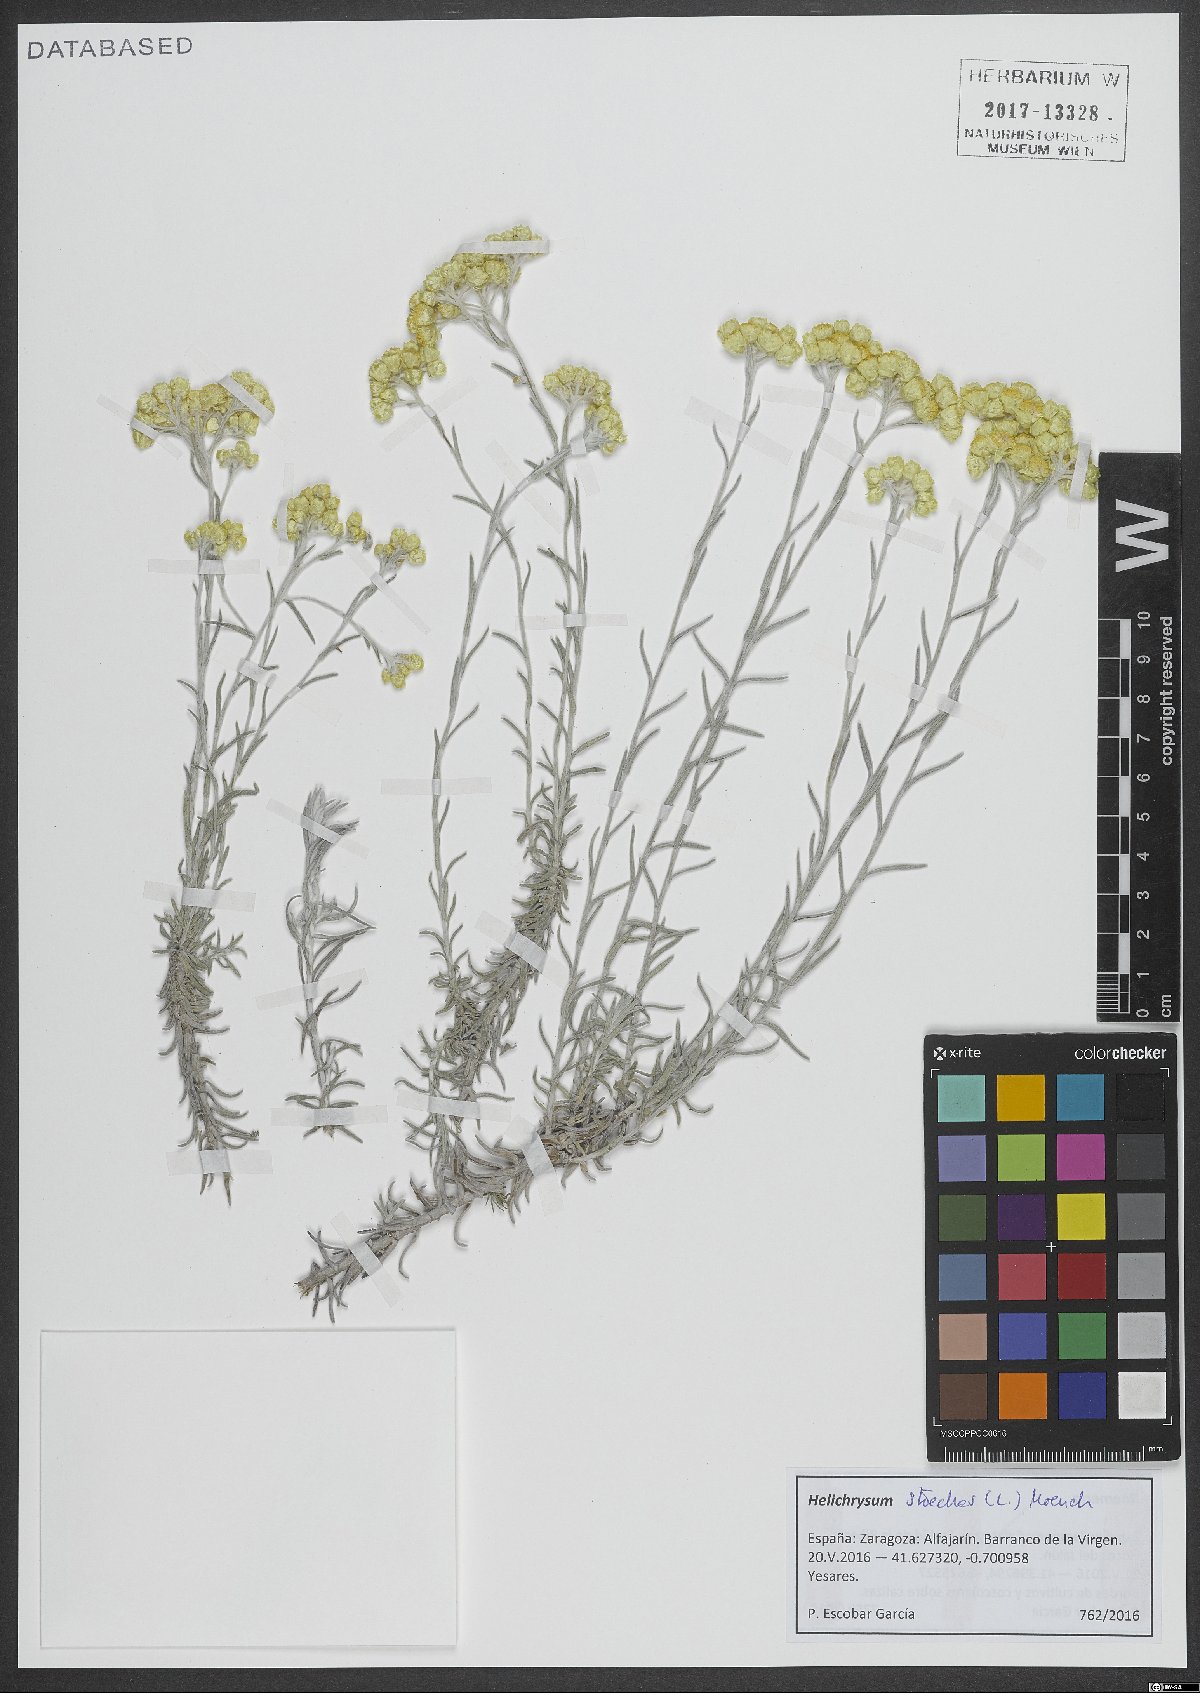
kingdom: Plantae
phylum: Tracheophyta
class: Magnoliopsida
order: Asterales
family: Asteraceae
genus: Helichrysum
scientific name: Helichrysum stoechas
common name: Goldilocks
